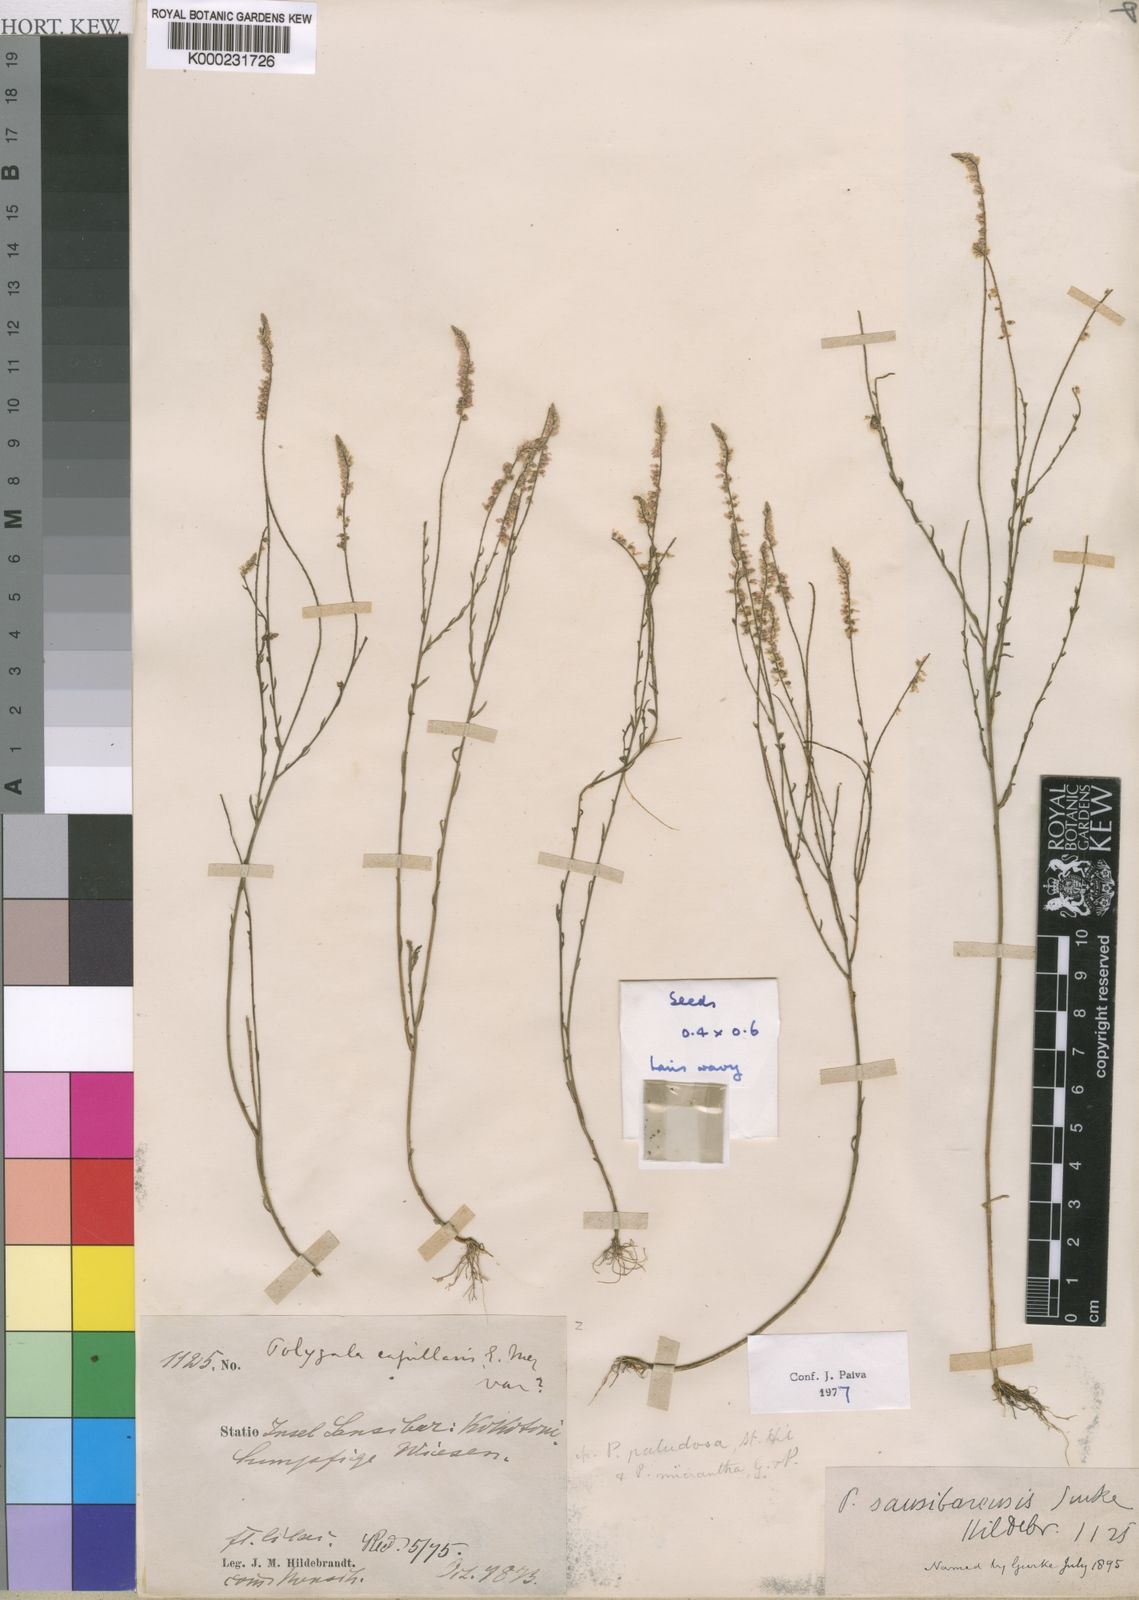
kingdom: Plantae
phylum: Tracheophyta
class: Magnoliopsida
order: Fabales
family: Polygalaceae
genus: Polygala
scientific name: Polygala
